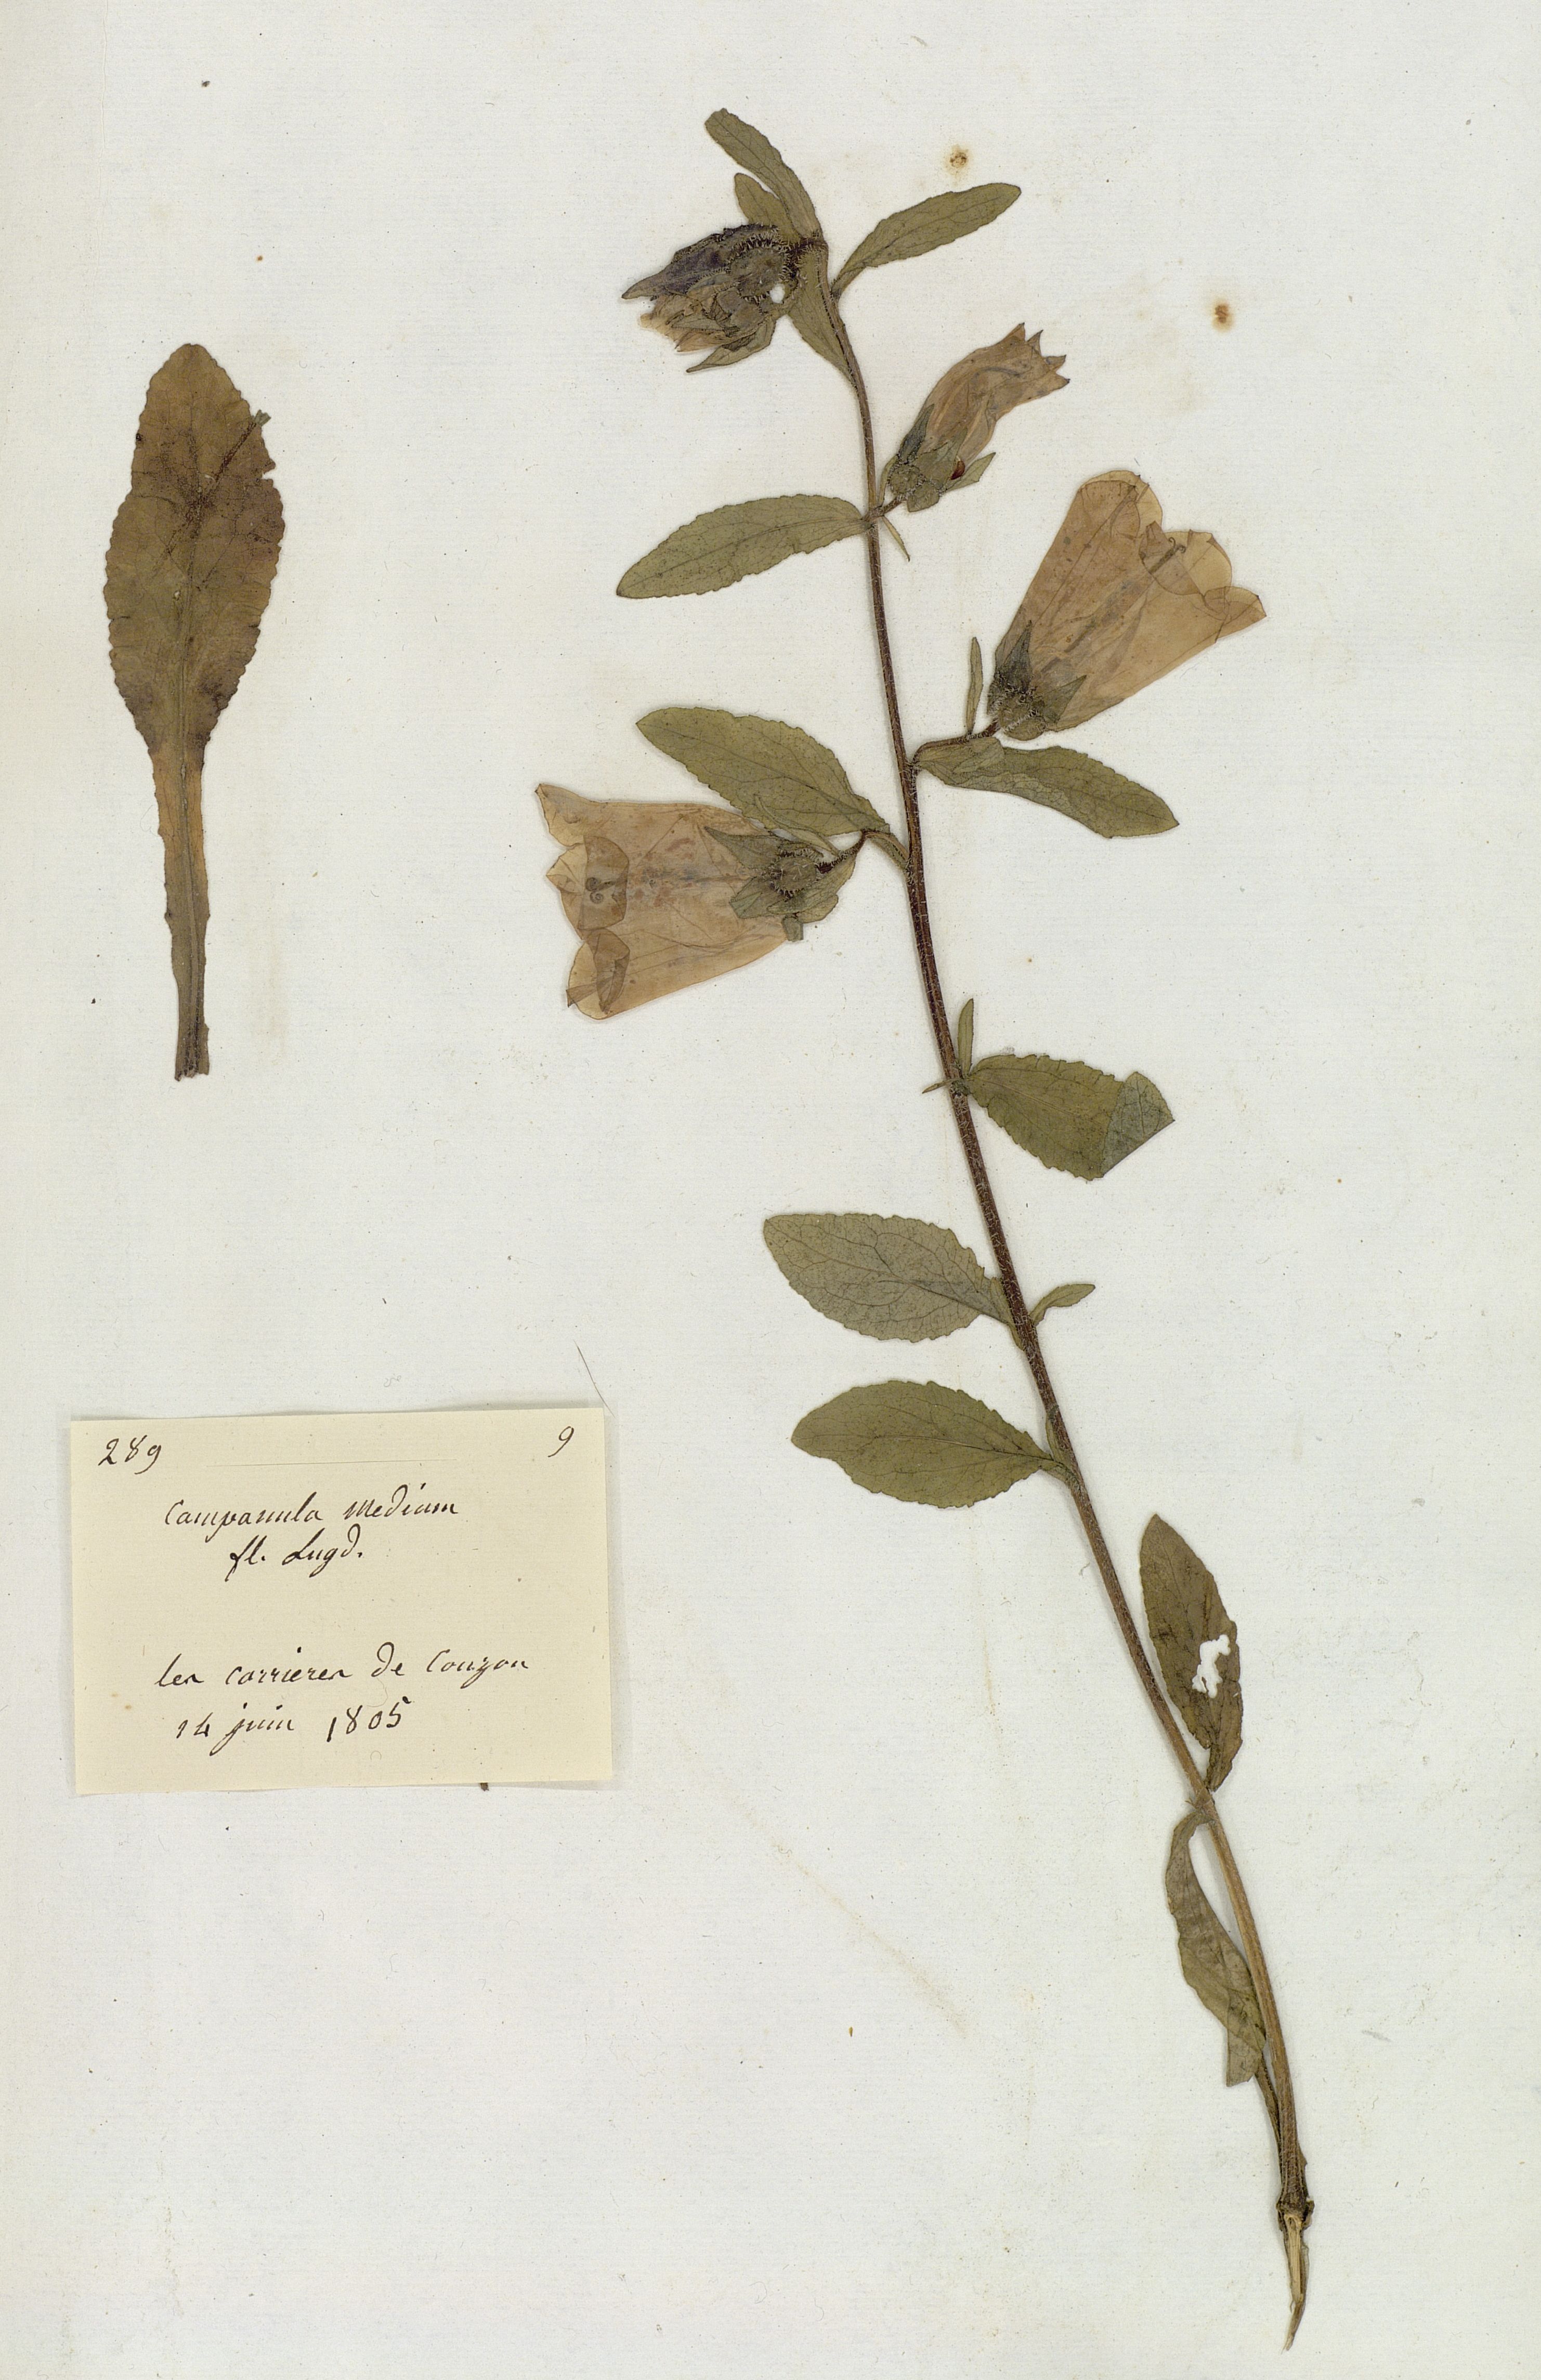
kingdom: Plantae
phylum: Tracheophyta
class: Magnoliopsida
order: Asterales
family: Campanulaceae
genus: Campanula
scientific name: Campanula medium
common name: Canterbury bells
